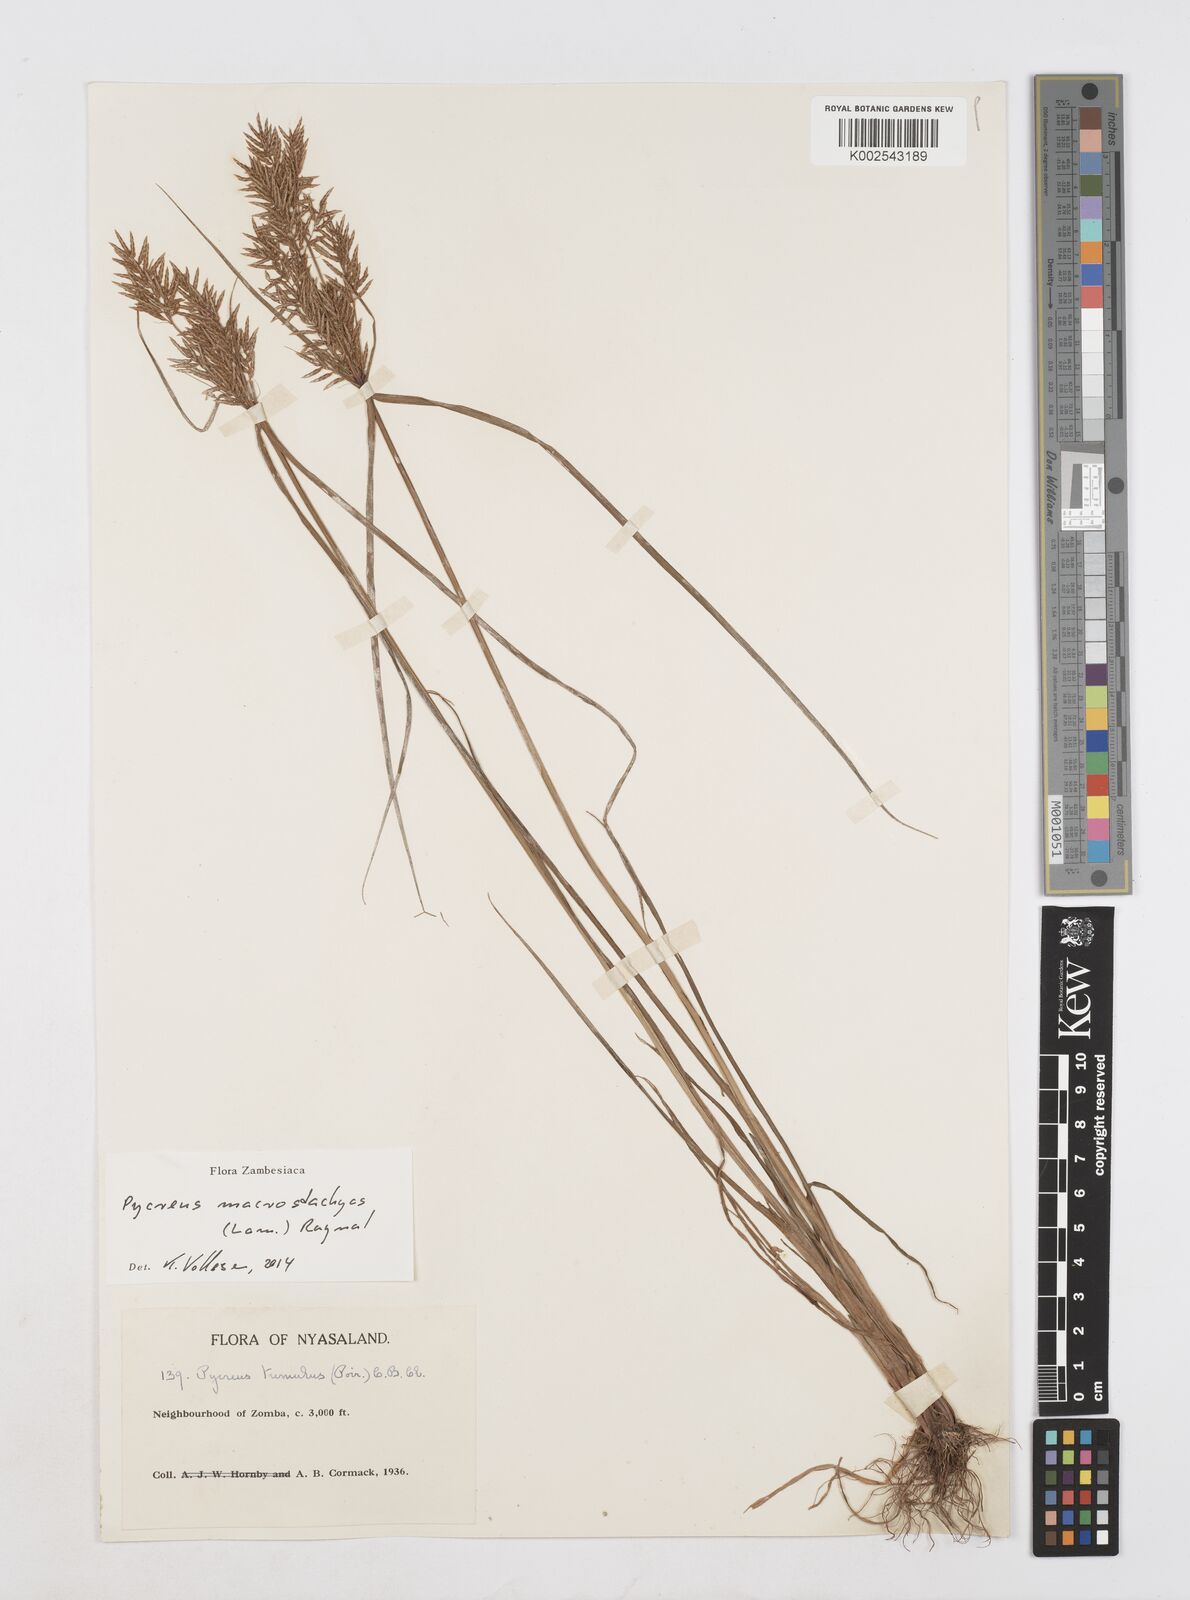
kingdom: Plantae
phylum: Tracheophyta
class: Liliopsida
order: Poales
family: Cyperaceae
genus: Cyperus
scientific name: Cyperus macrostachyos
